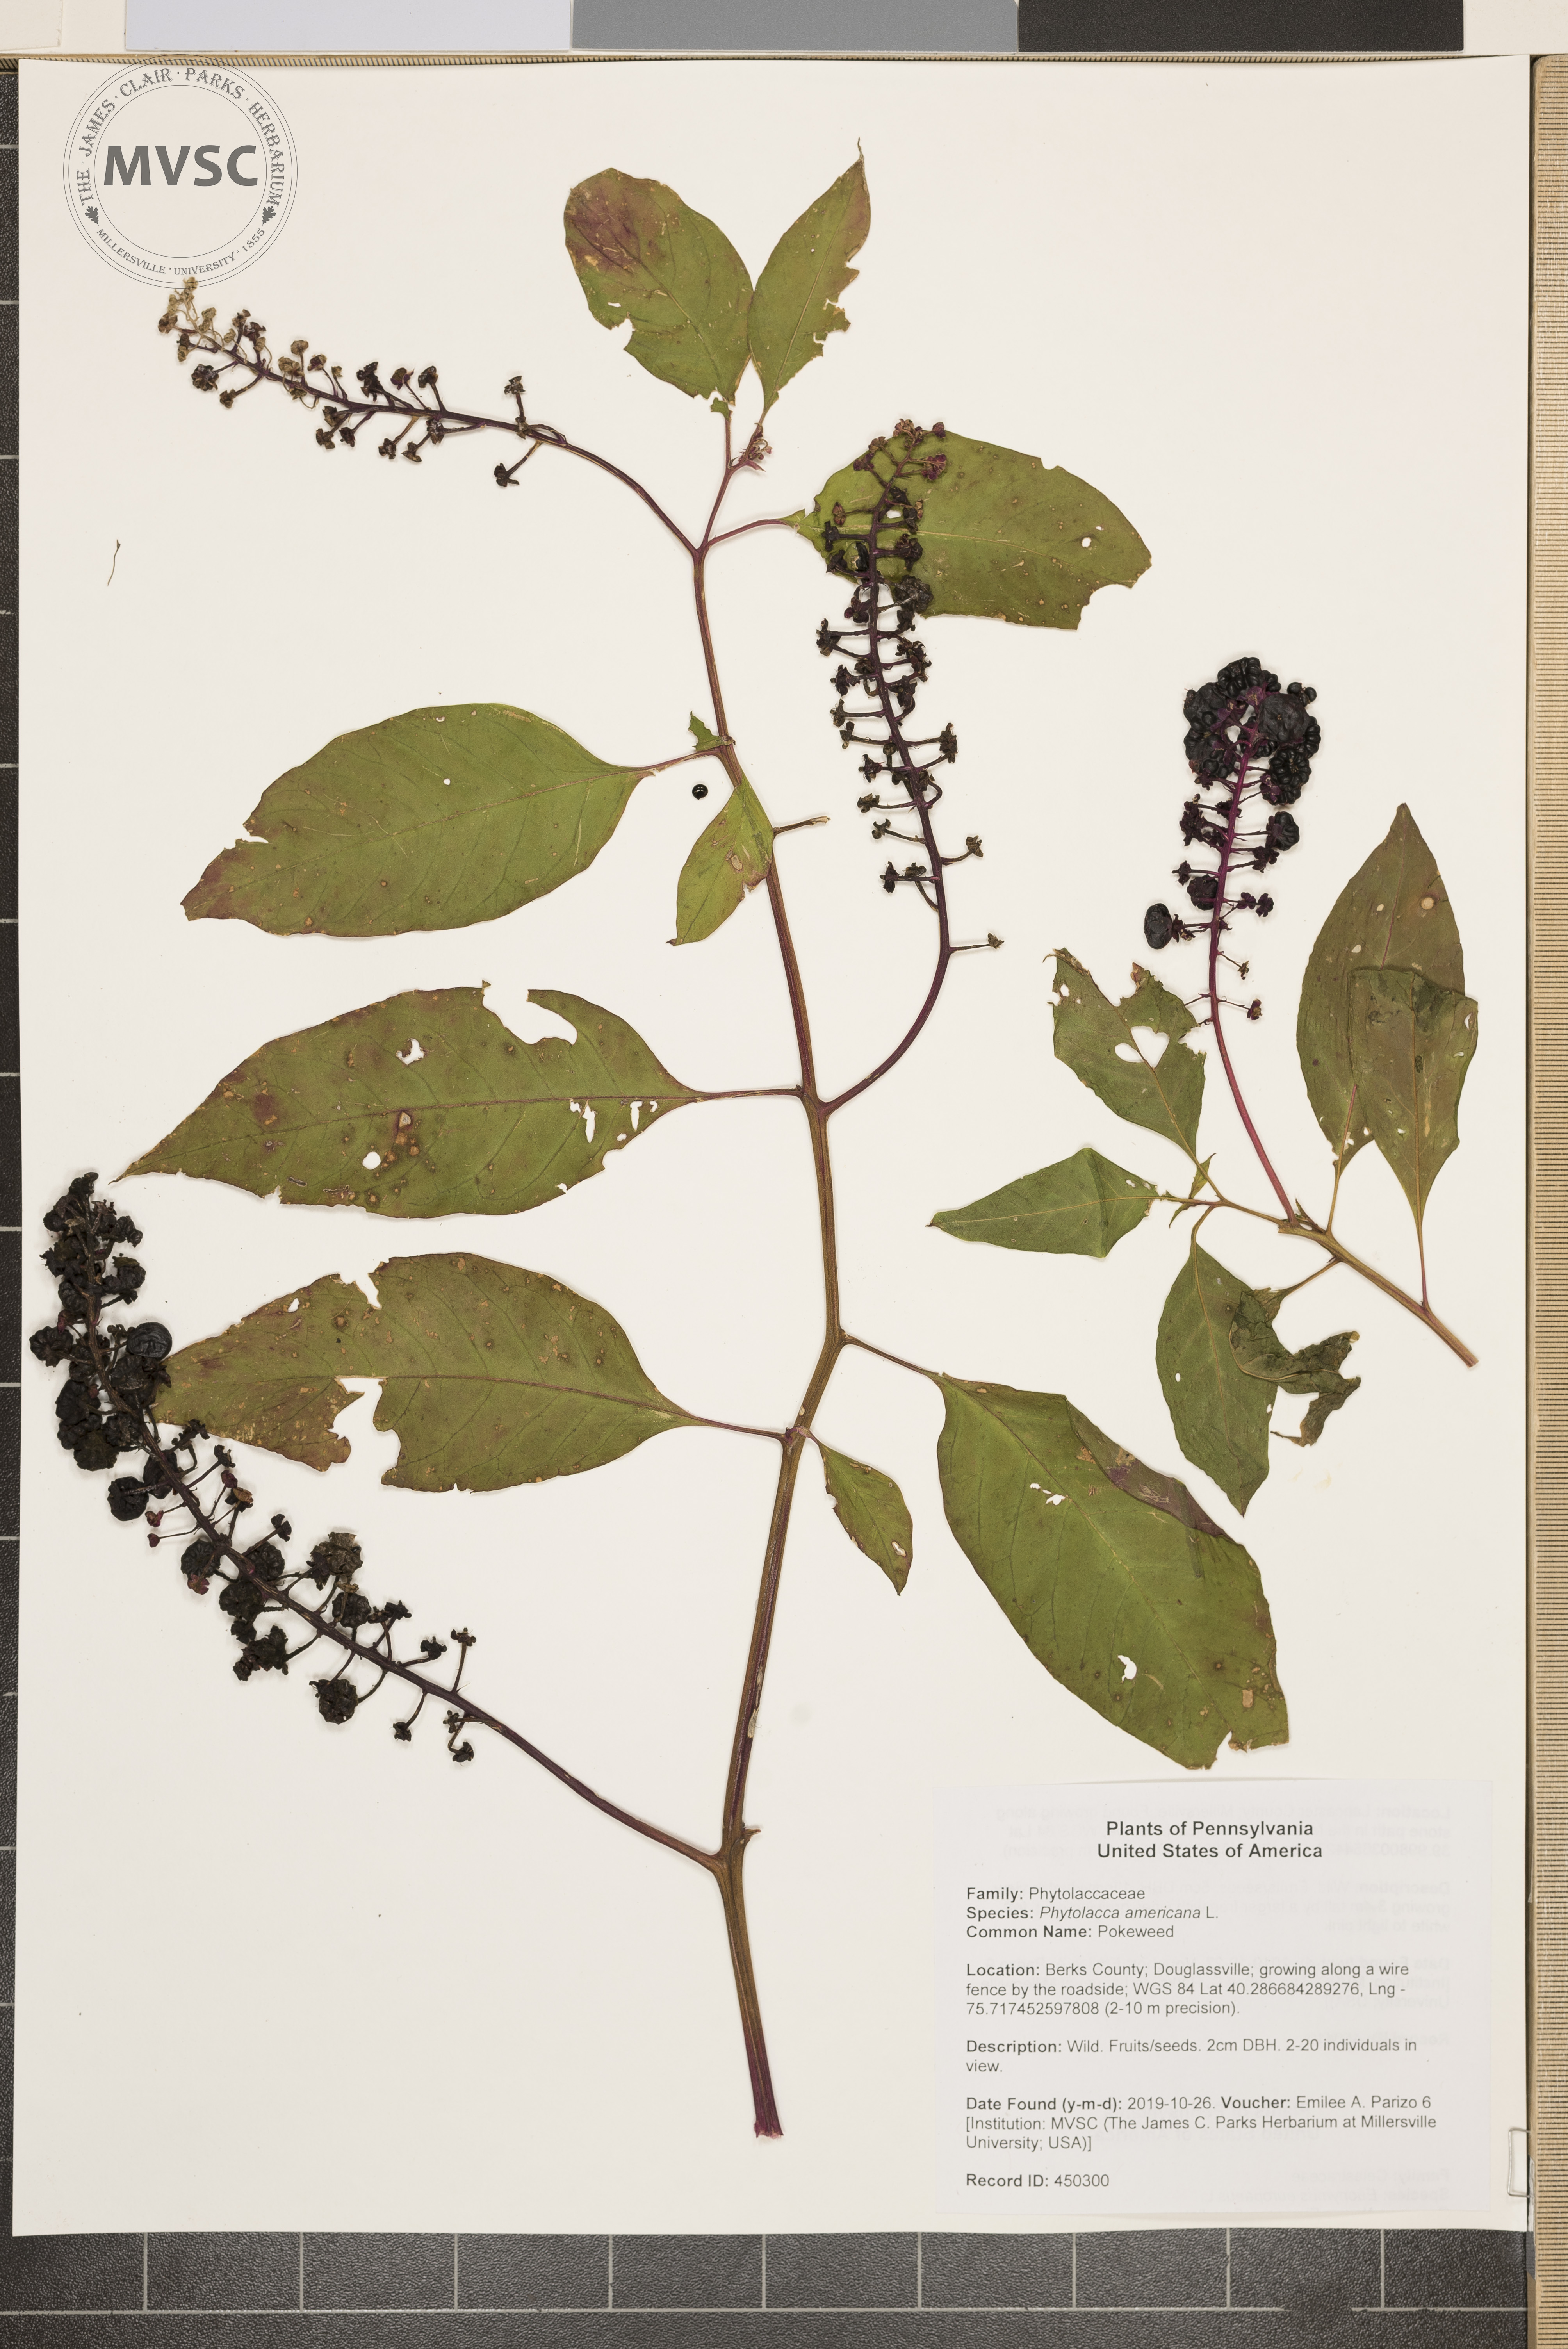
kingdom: Plantae
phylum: Tracheophyta
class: Magnoliopsida
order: Caryophyllales
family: Phytolaccaceae
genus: Phytolacca
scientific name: Phytolacca americana
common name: Pokeweed
